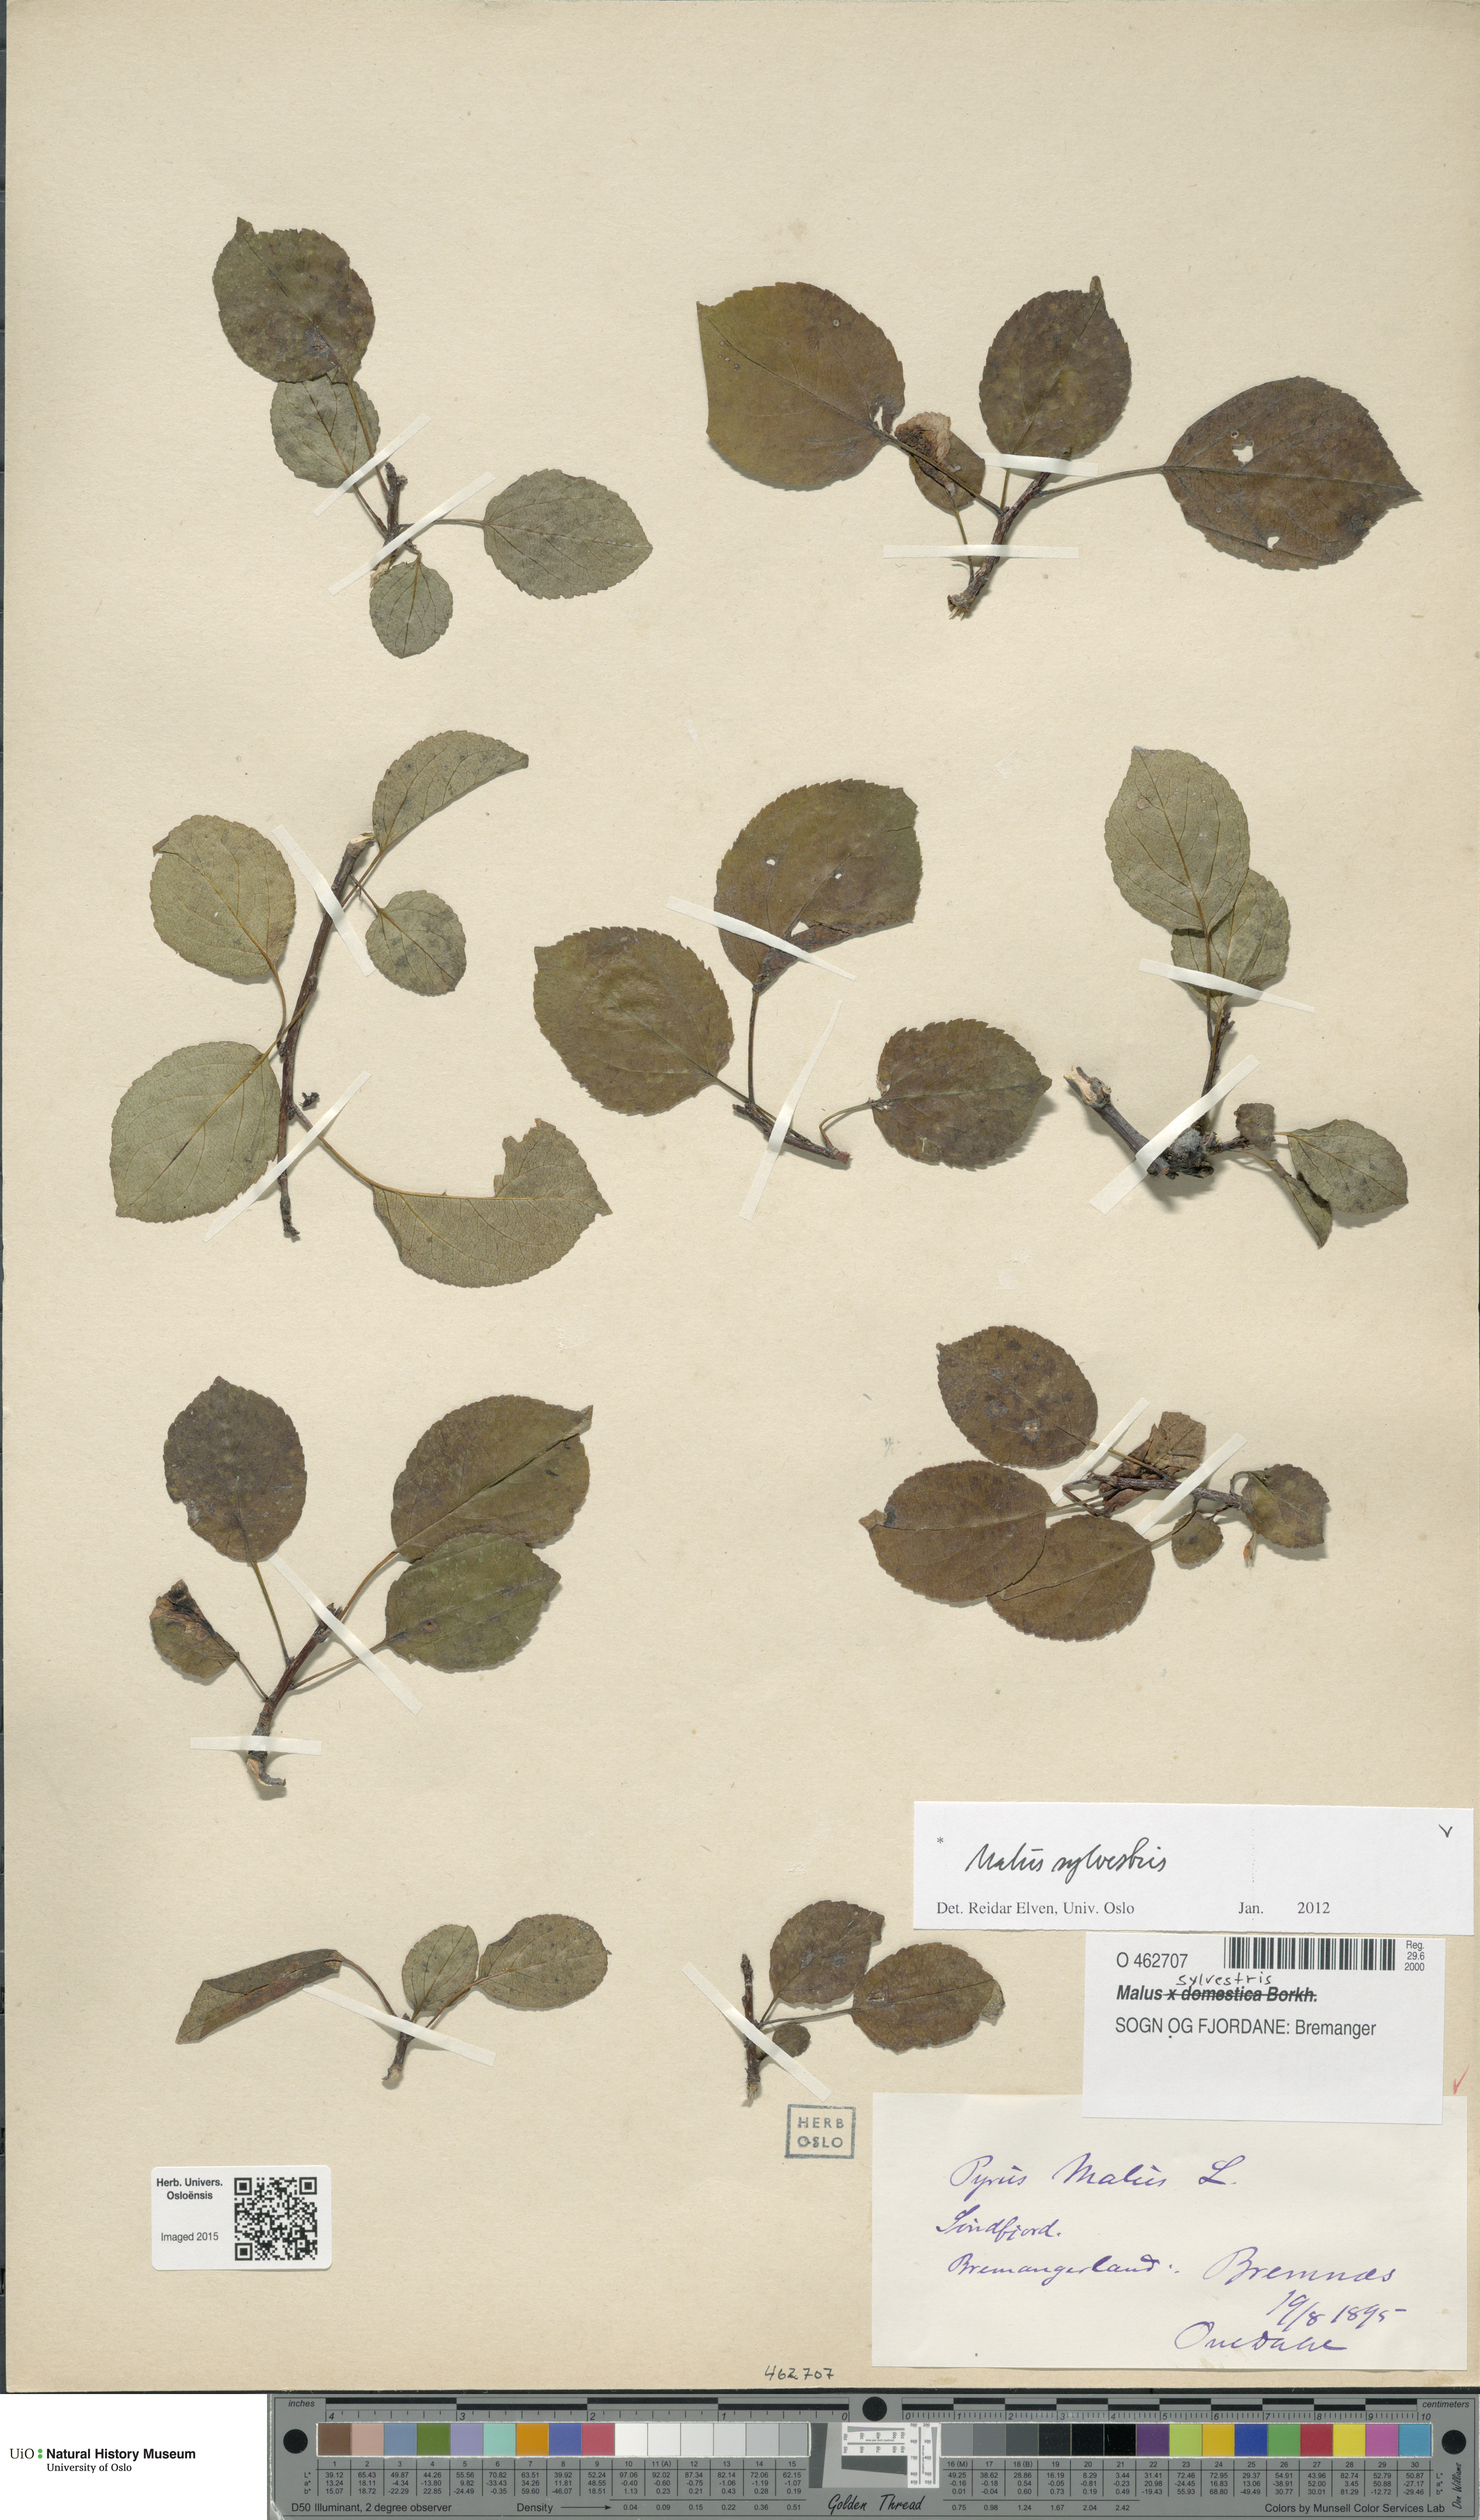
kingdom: Plantae
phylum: Tracheophyta
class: Magnoliopsida
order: Rosales
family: Rosaceae
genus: Malus
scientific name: Malus sylvestris
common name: Crab apple
